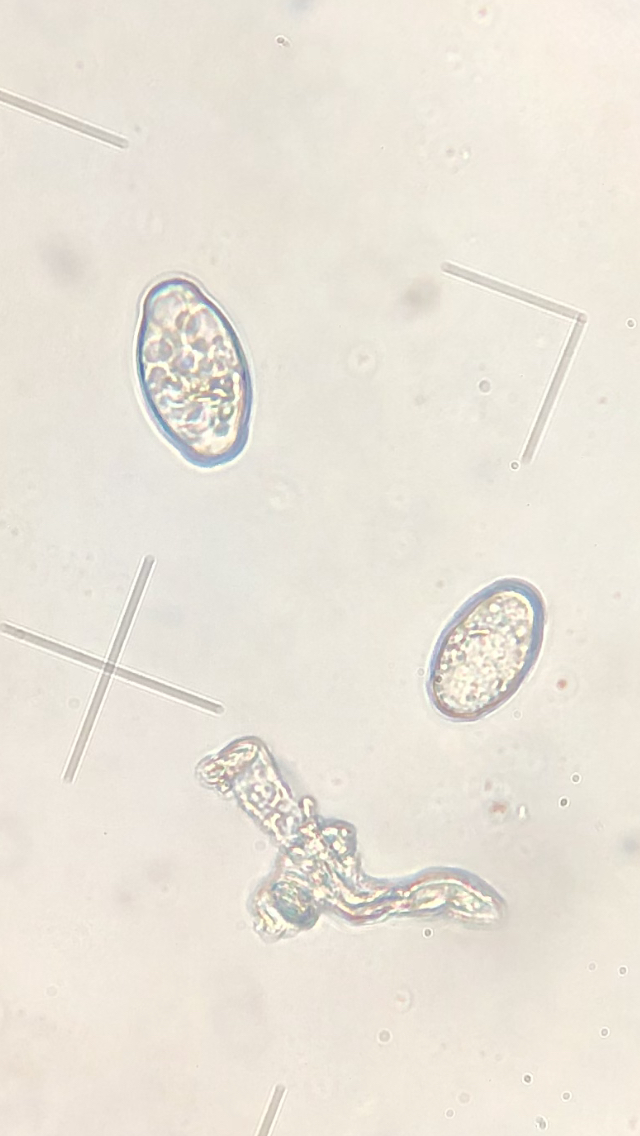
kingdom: Fungi
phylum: Ascomycota
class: Leotiomycetes
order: Helotiales
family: Erysiphaceae
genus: Podosphaera
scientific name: Podosphaera filipendulae
